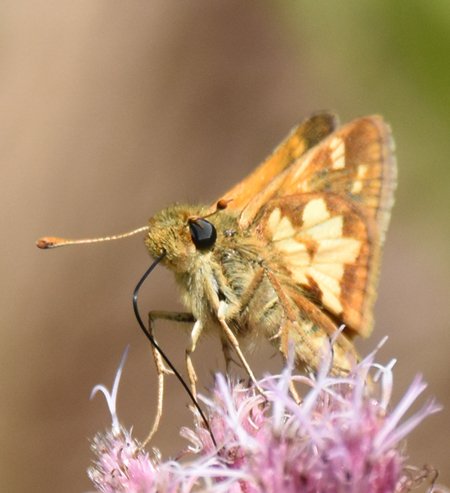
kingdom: Animalia
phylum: Arthropoda
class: Insecta
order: Lepidoptera
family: Hesperiidae
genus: Polites
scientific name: Polites coras
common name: Peck's Skipper
